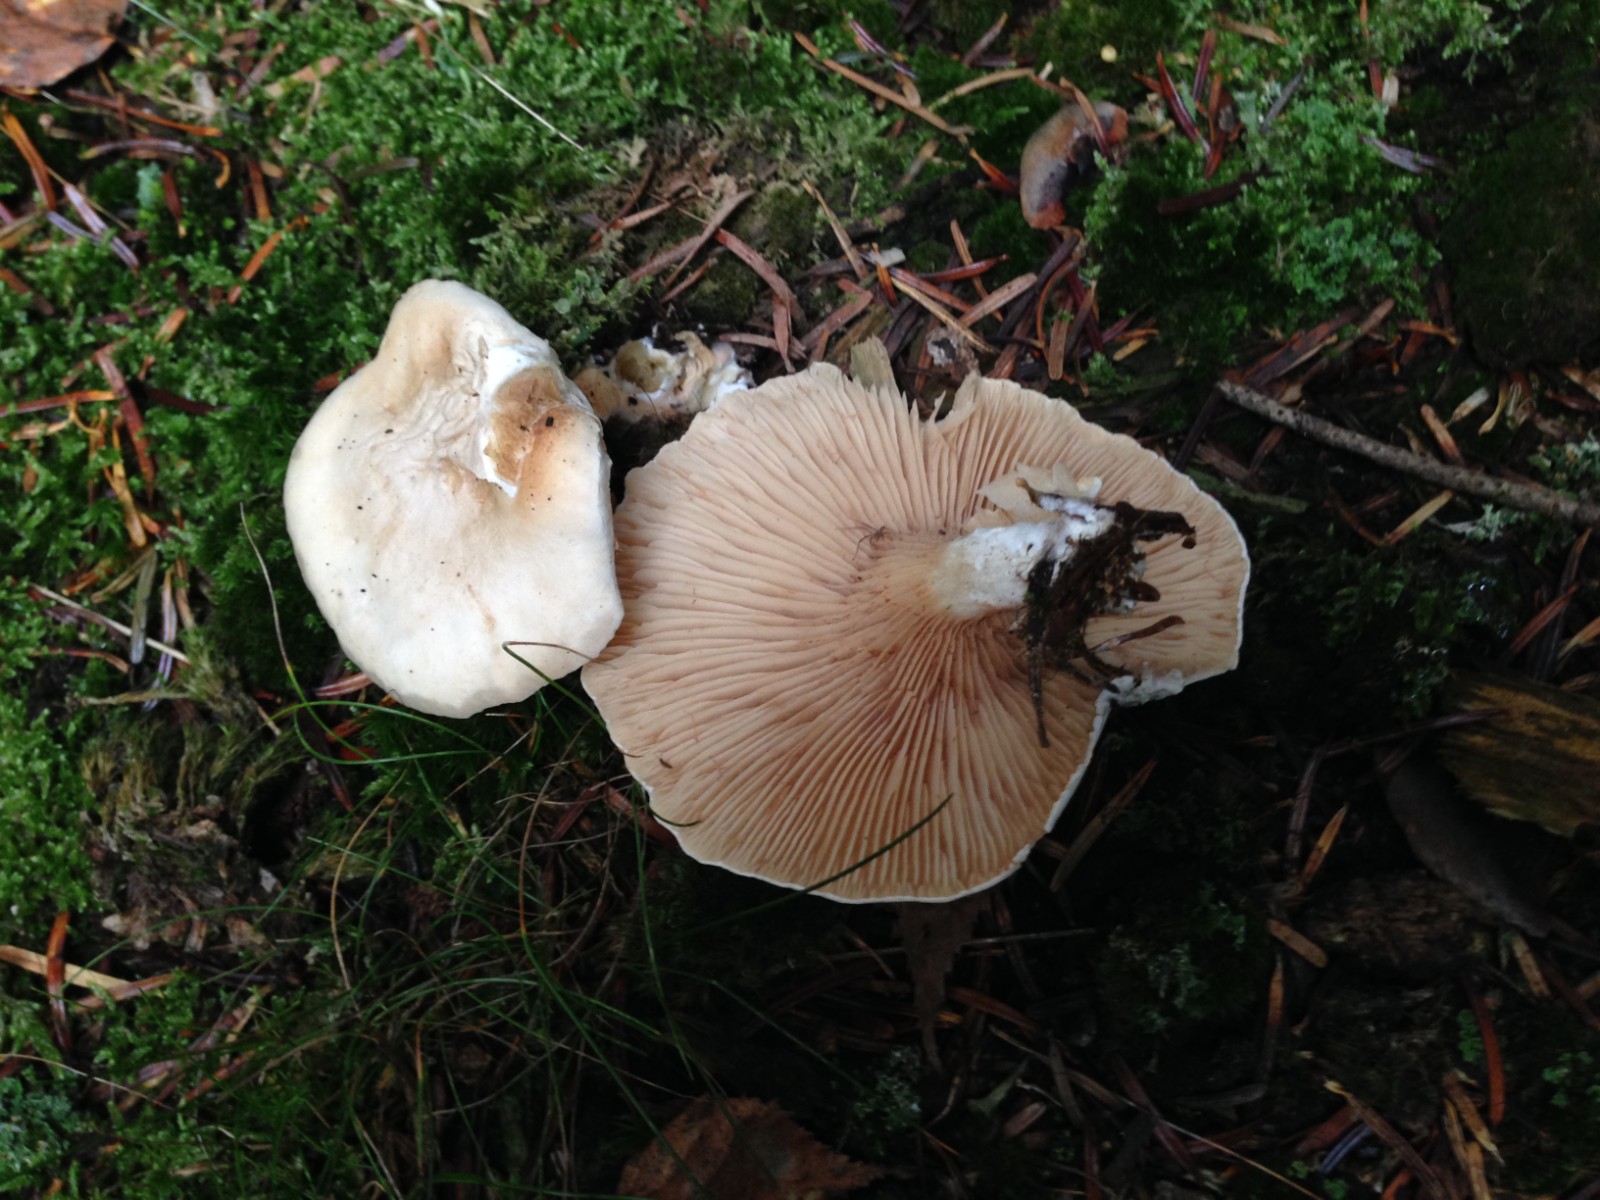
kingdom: Fungi
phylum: Basidiomycota
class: Agaricomycetes
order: Agaricales
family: Entolomataceae
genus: Clitopilus
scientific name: Clitopilus prunulus
